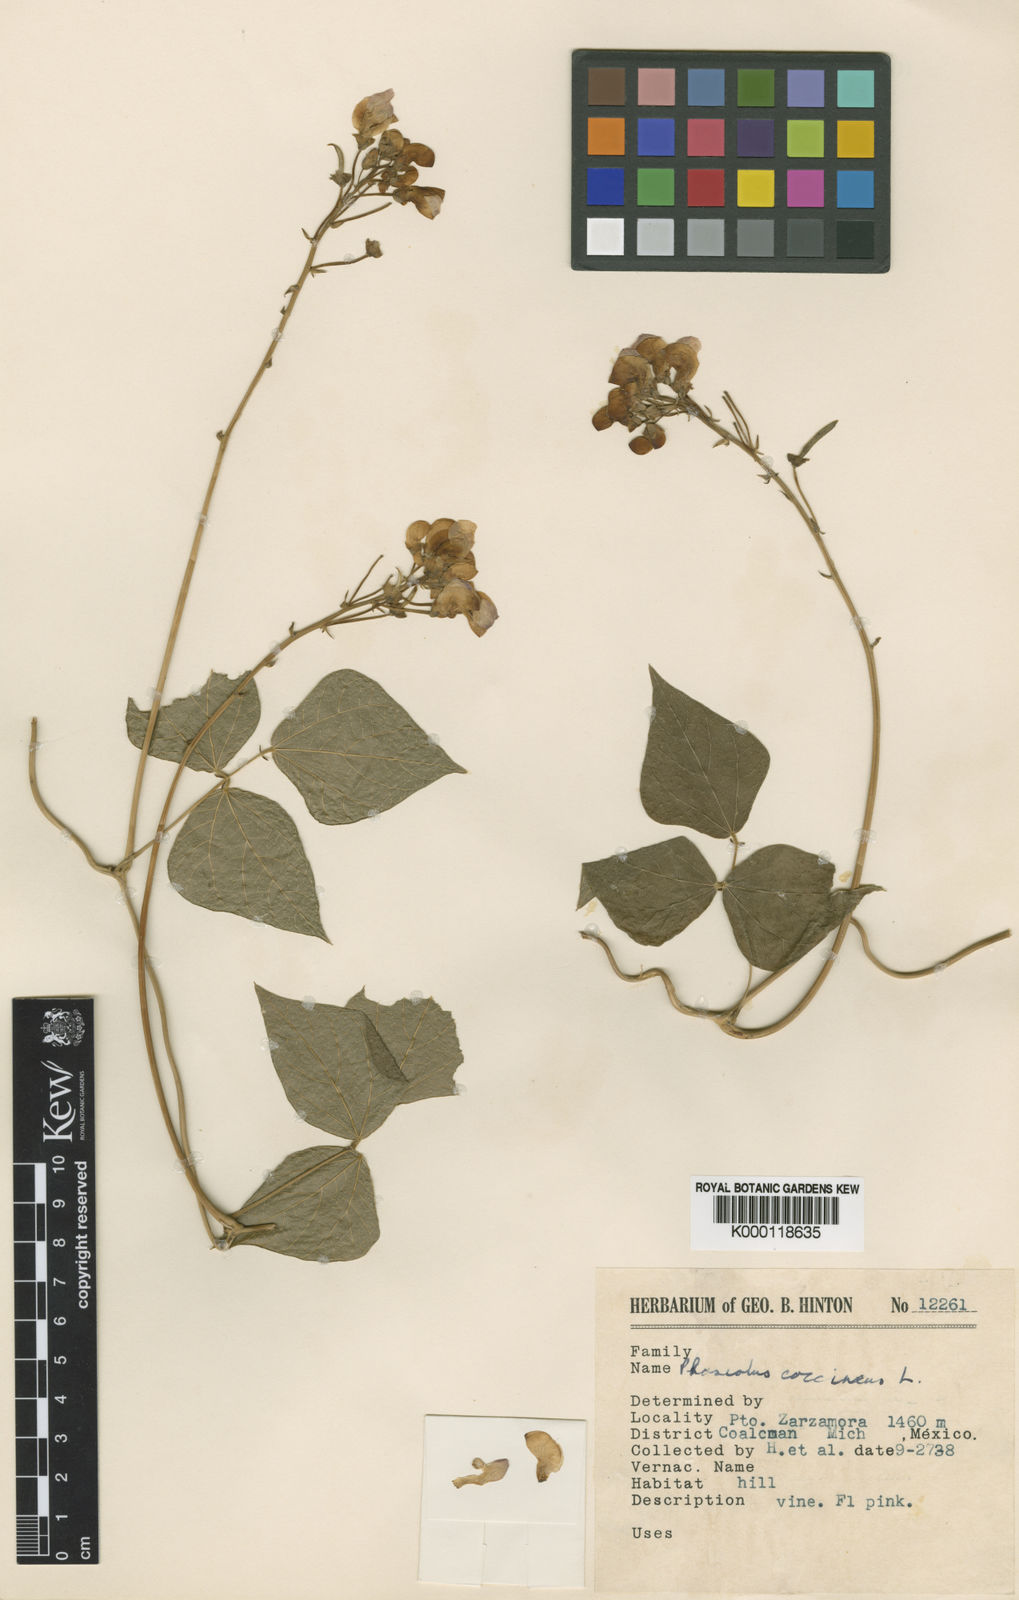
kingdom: Plantae
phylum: Tracheophyta
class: Magnoliopsida
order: Fabales
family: Fabaceae
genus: Phaseolus
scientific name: Phaseolus coccineus
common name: Runner bean
